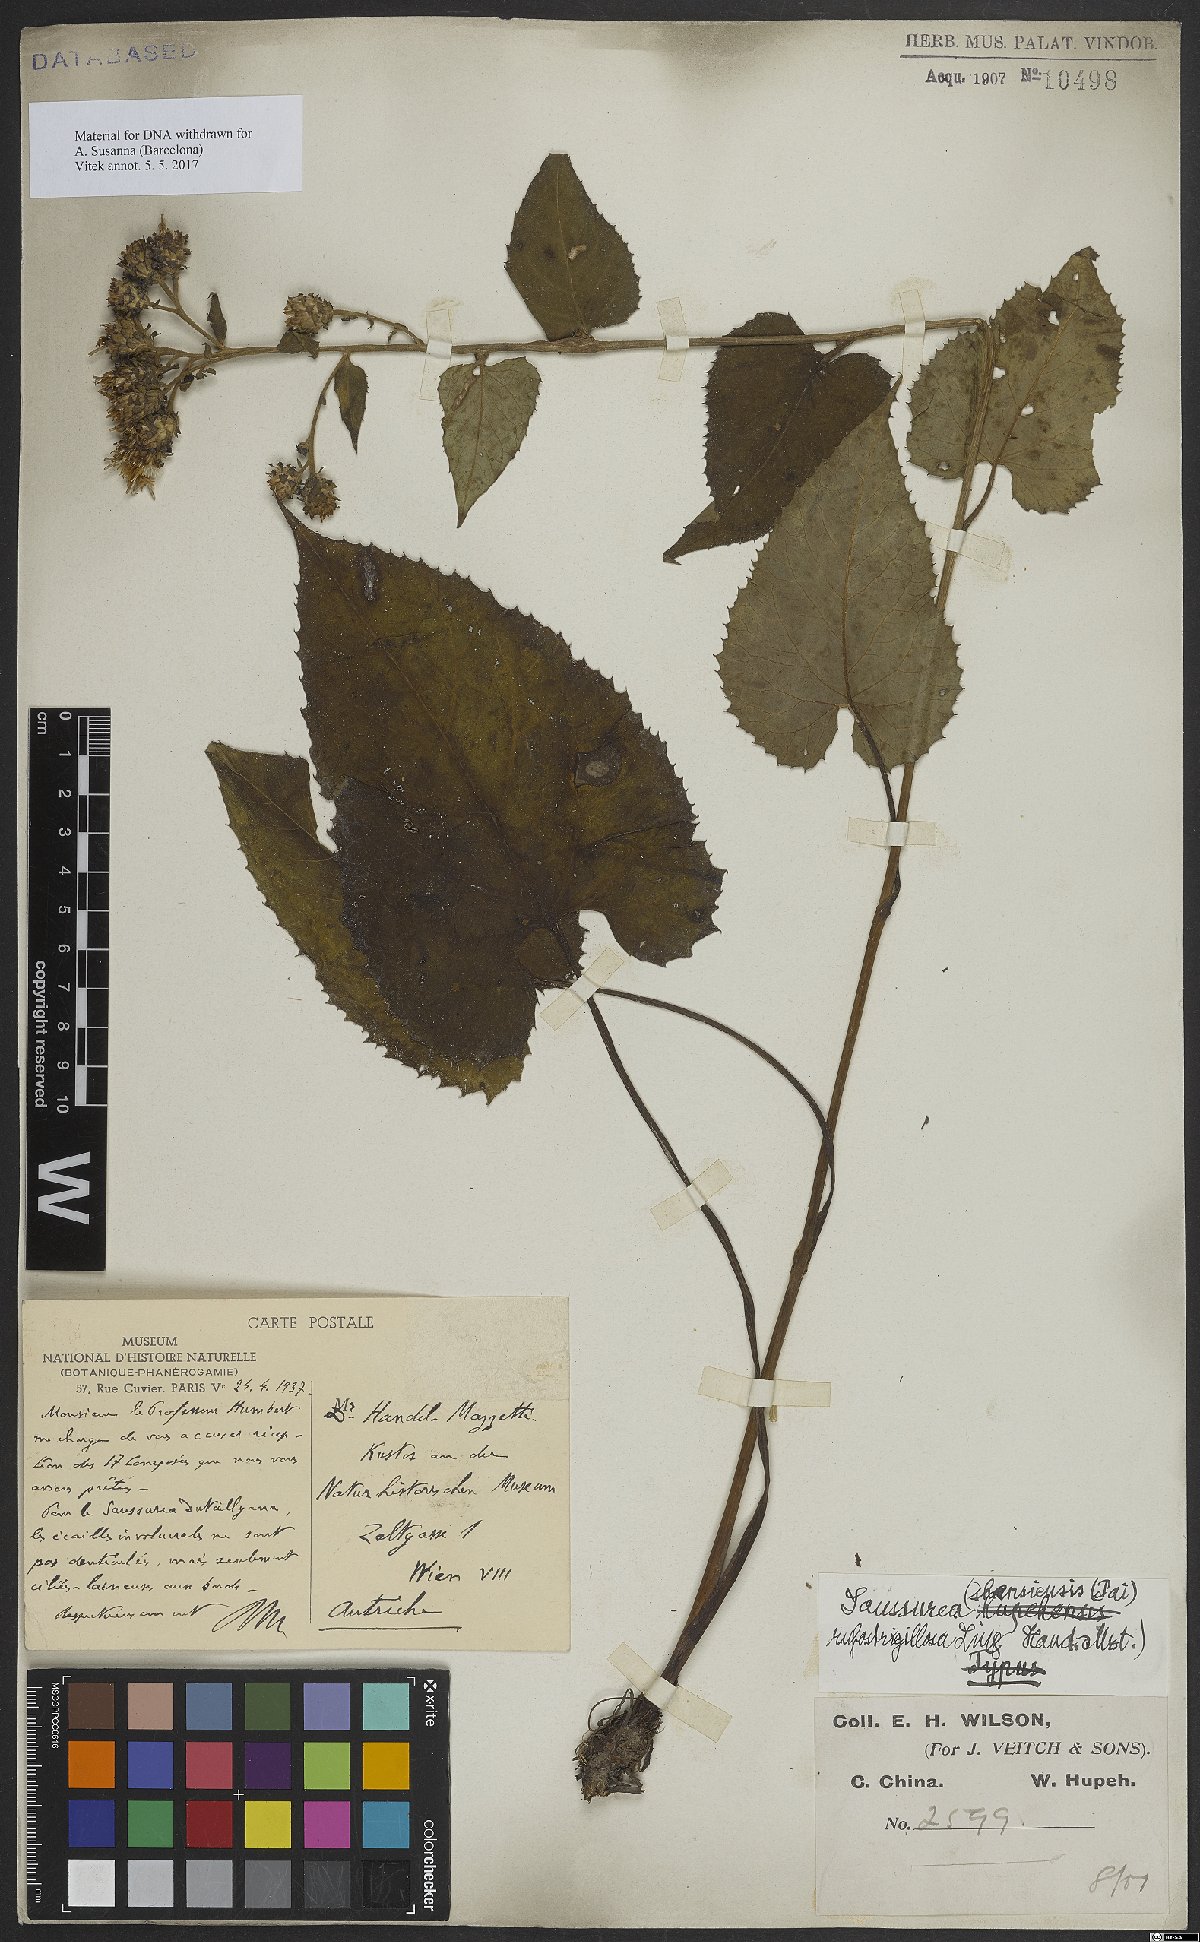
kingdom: Plantae
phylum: Tracheophyta
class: Magnoliopsida
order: Asterales
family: Asteraceae
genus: Saussurea
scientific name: Saussurea sutchuenensis
